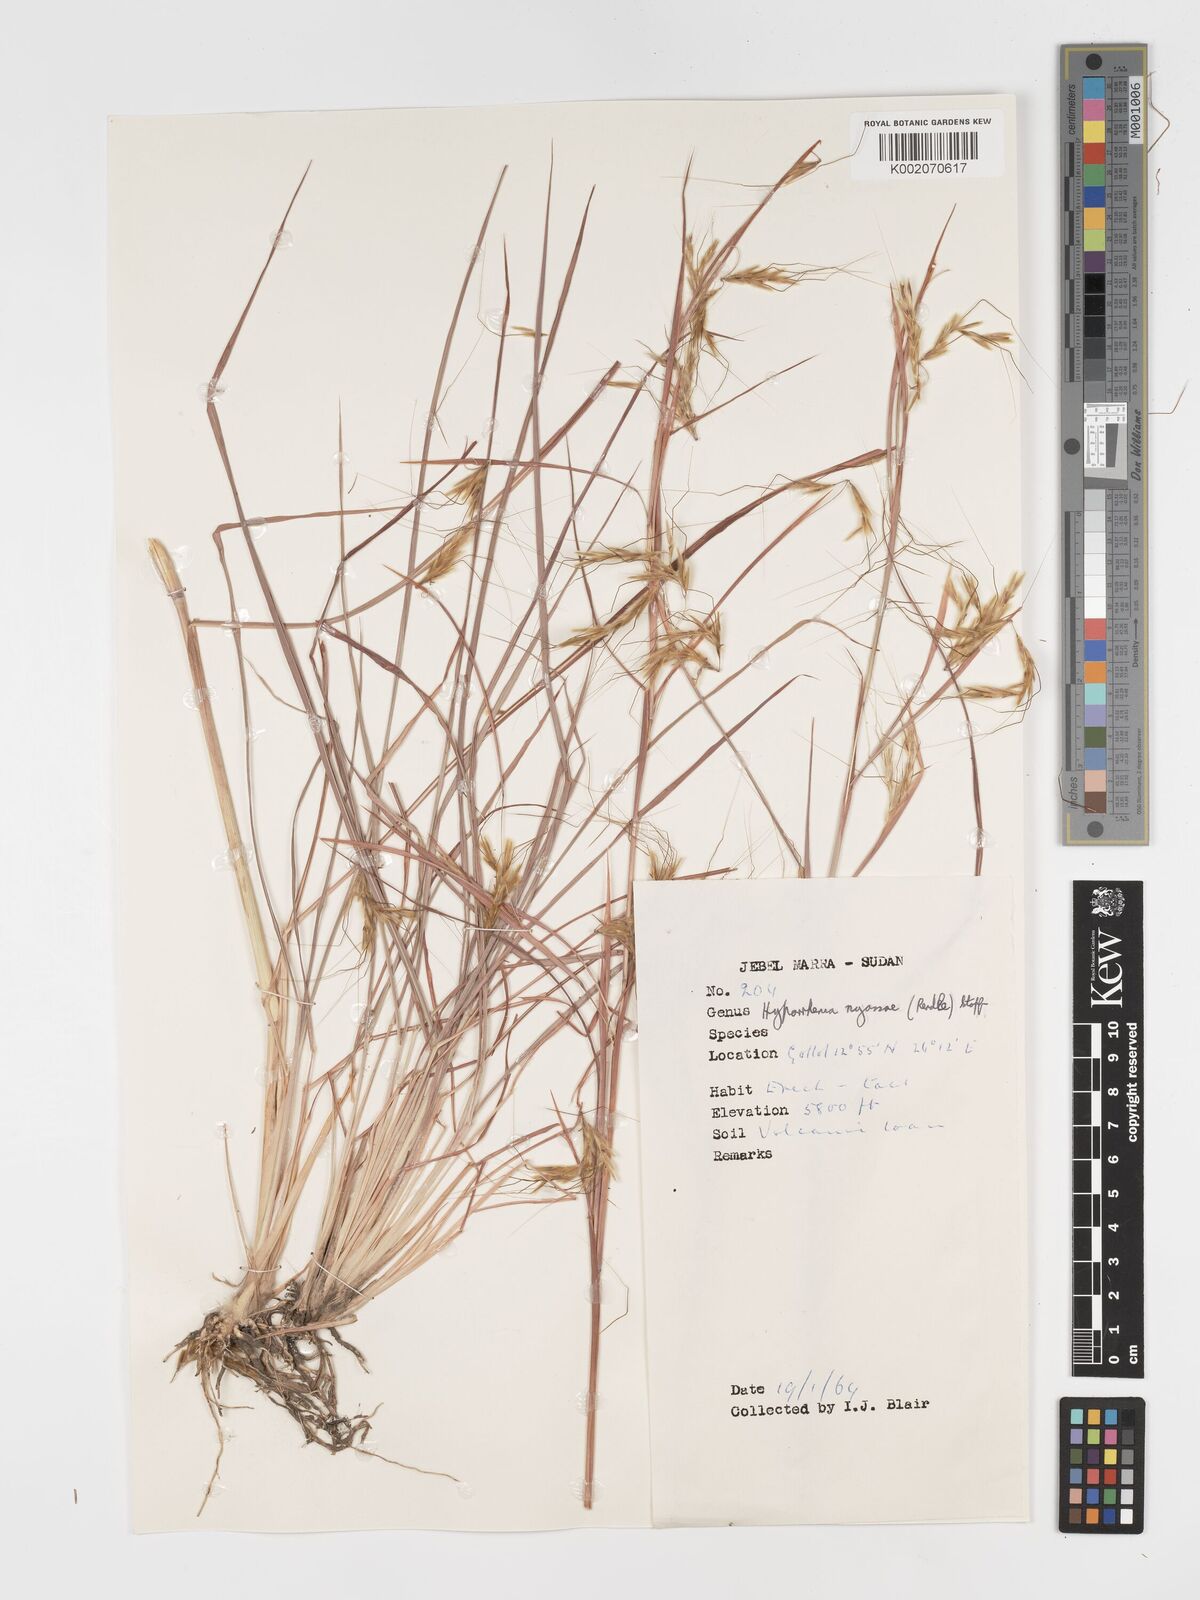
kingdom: Plantae
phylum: Tracheophyta
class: Liliopsida
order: Poales
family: Poaceae
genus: Hyparrhenia
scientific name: Hyparrhenia nyassae
